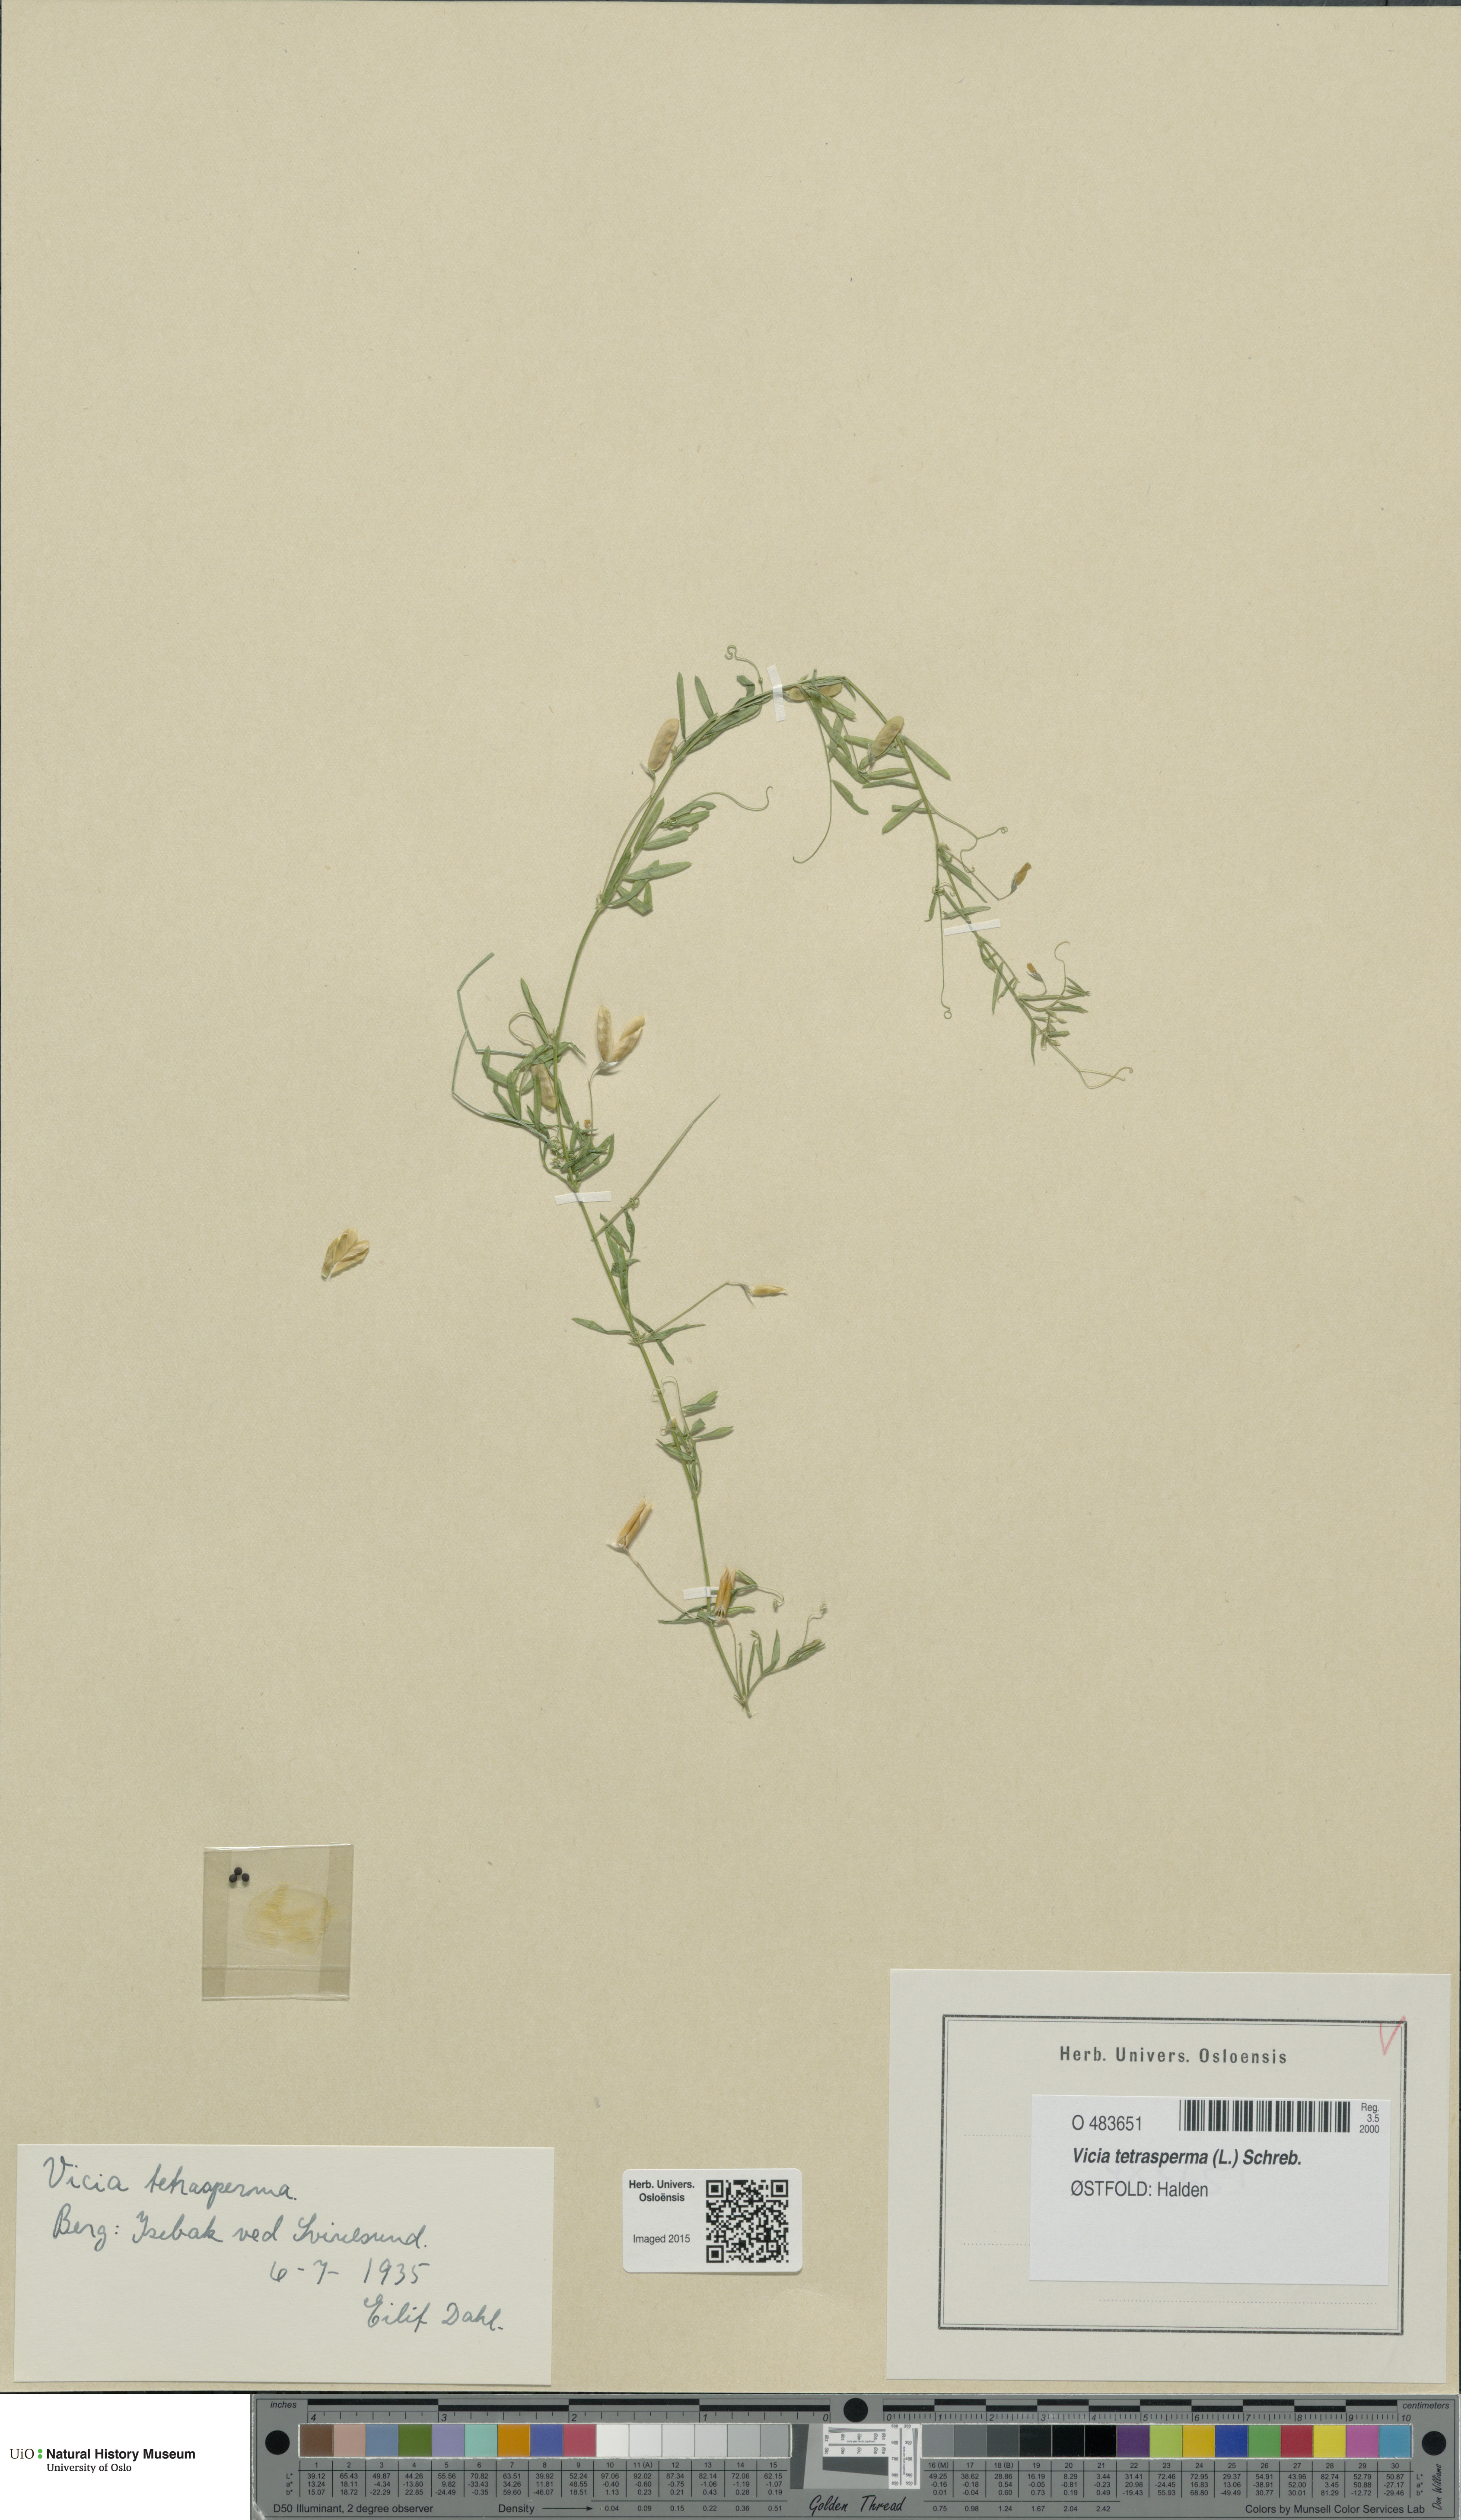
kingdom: Plantae
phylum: Tracheophyta
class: Magnoliopsida
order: Fabales
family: Fabaceae
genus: Vicia
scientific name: Vicia tetrasperma
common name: Smooth tare
